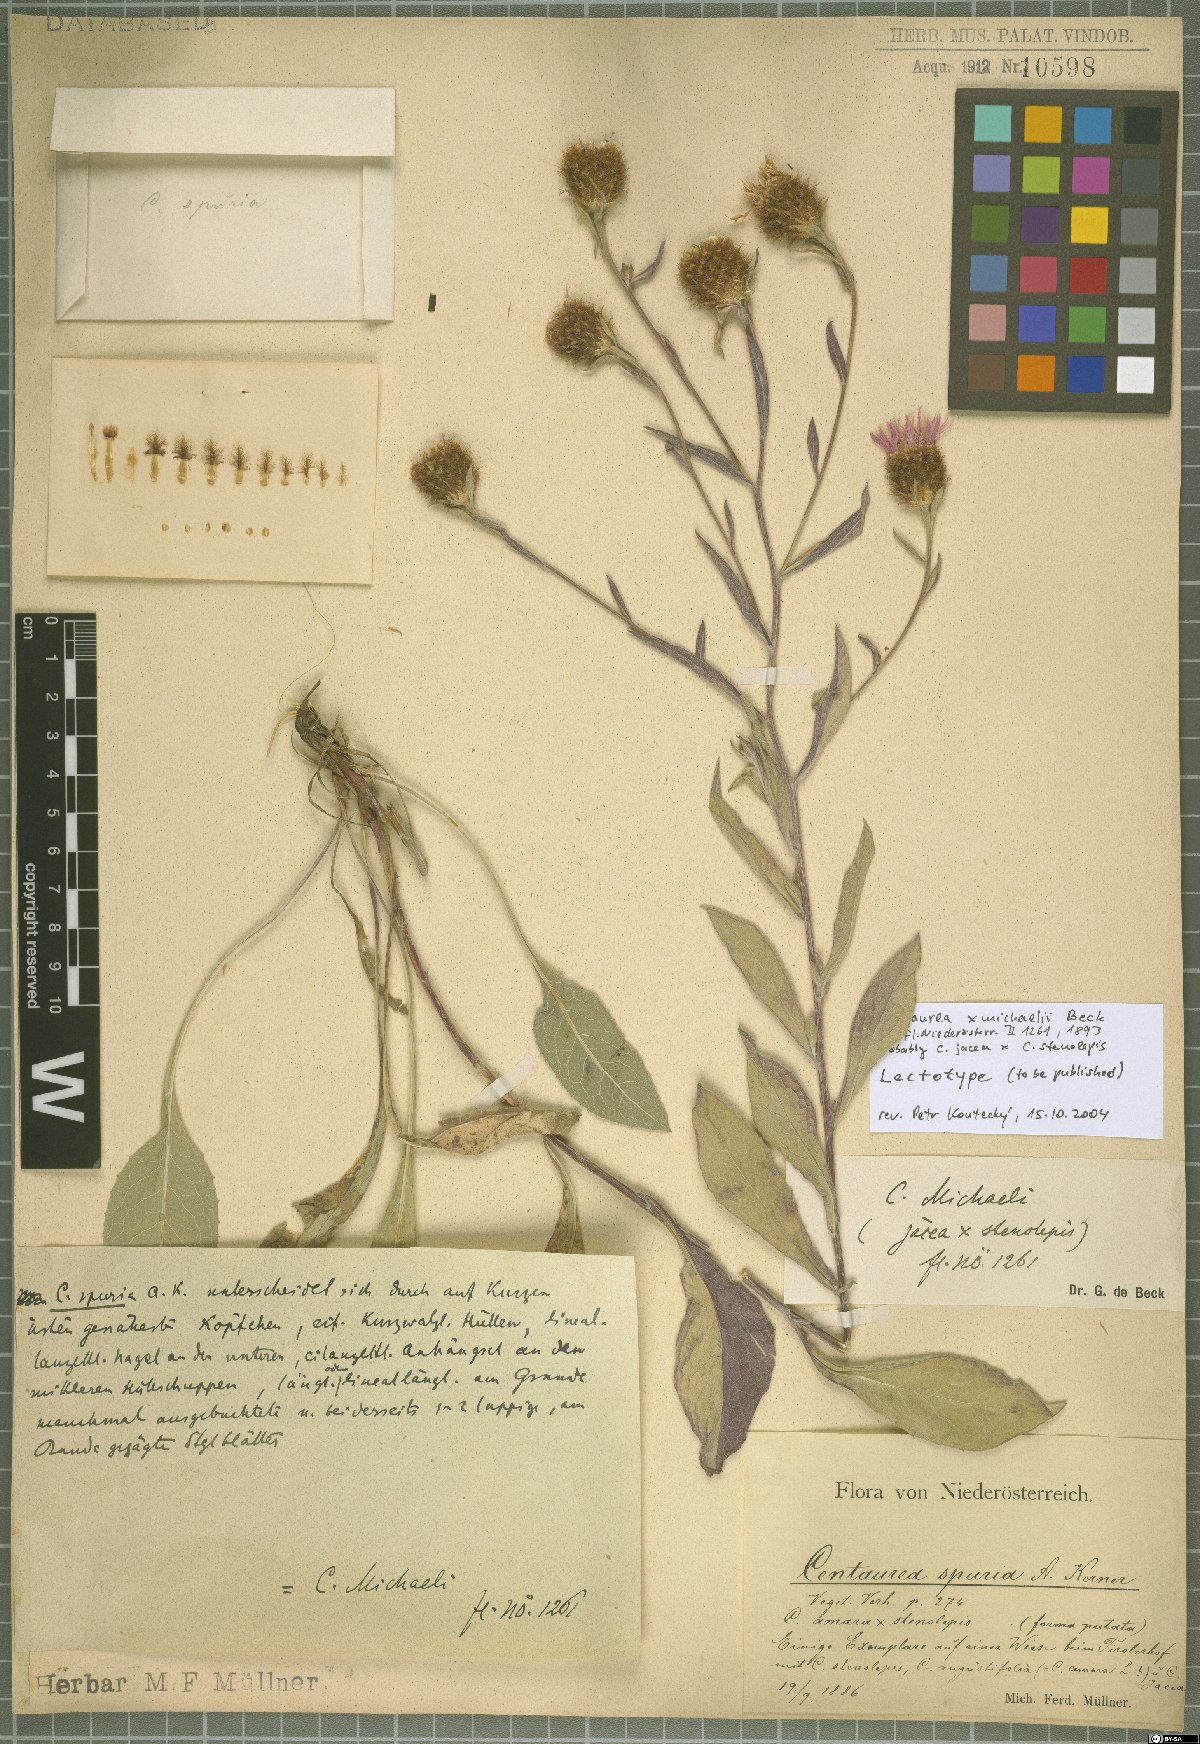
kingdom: Plantae
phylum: Tracheophyta
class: Magnoliopsida
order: Asterales
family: Asteraceae
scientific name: Asteraceae
